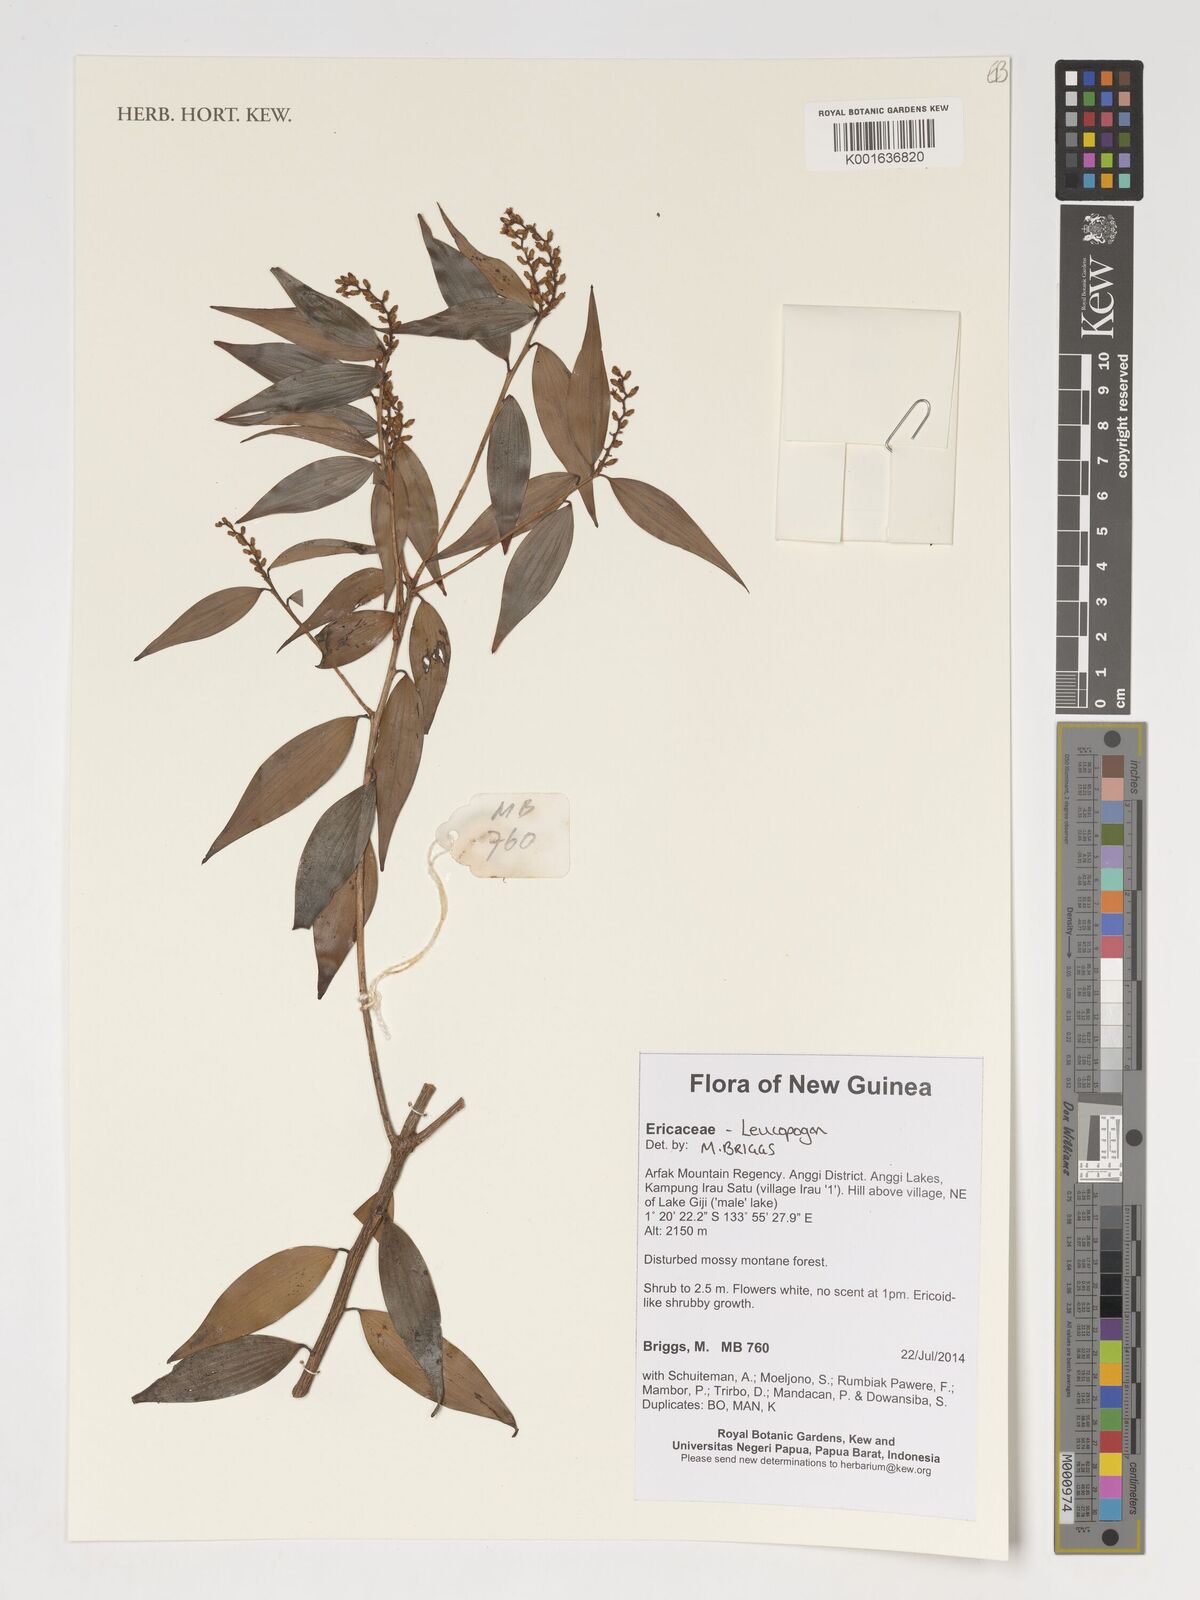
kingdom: Plantae
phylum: Tracheophyta
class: Magnoliopsida
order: Ericales
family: Ericaceae
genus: Leucopogon
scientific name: Leucopogon
